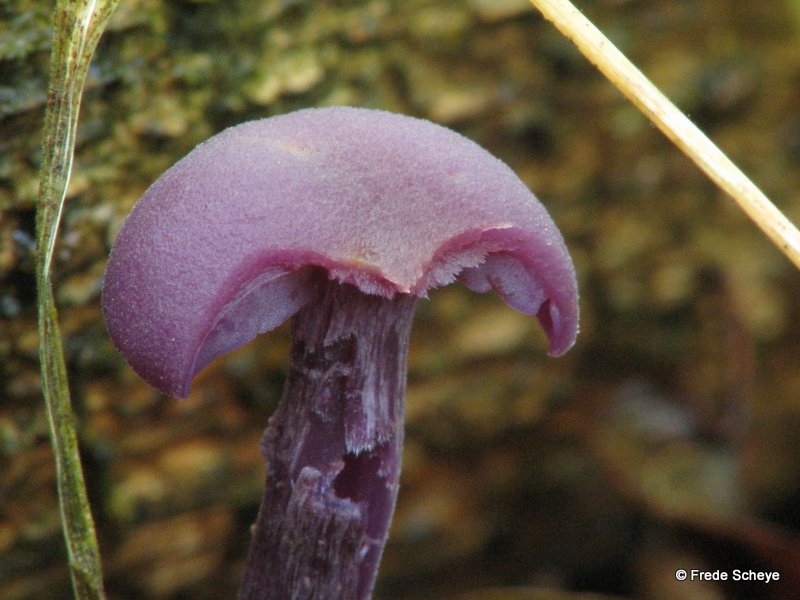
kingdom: Fungi
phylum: Basidiomycota
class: Agaricomycetes
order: Agaricales
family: Hydnangiaceae
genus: Laccaria
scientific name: Laccaria amethystina
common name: violet ametysthat
